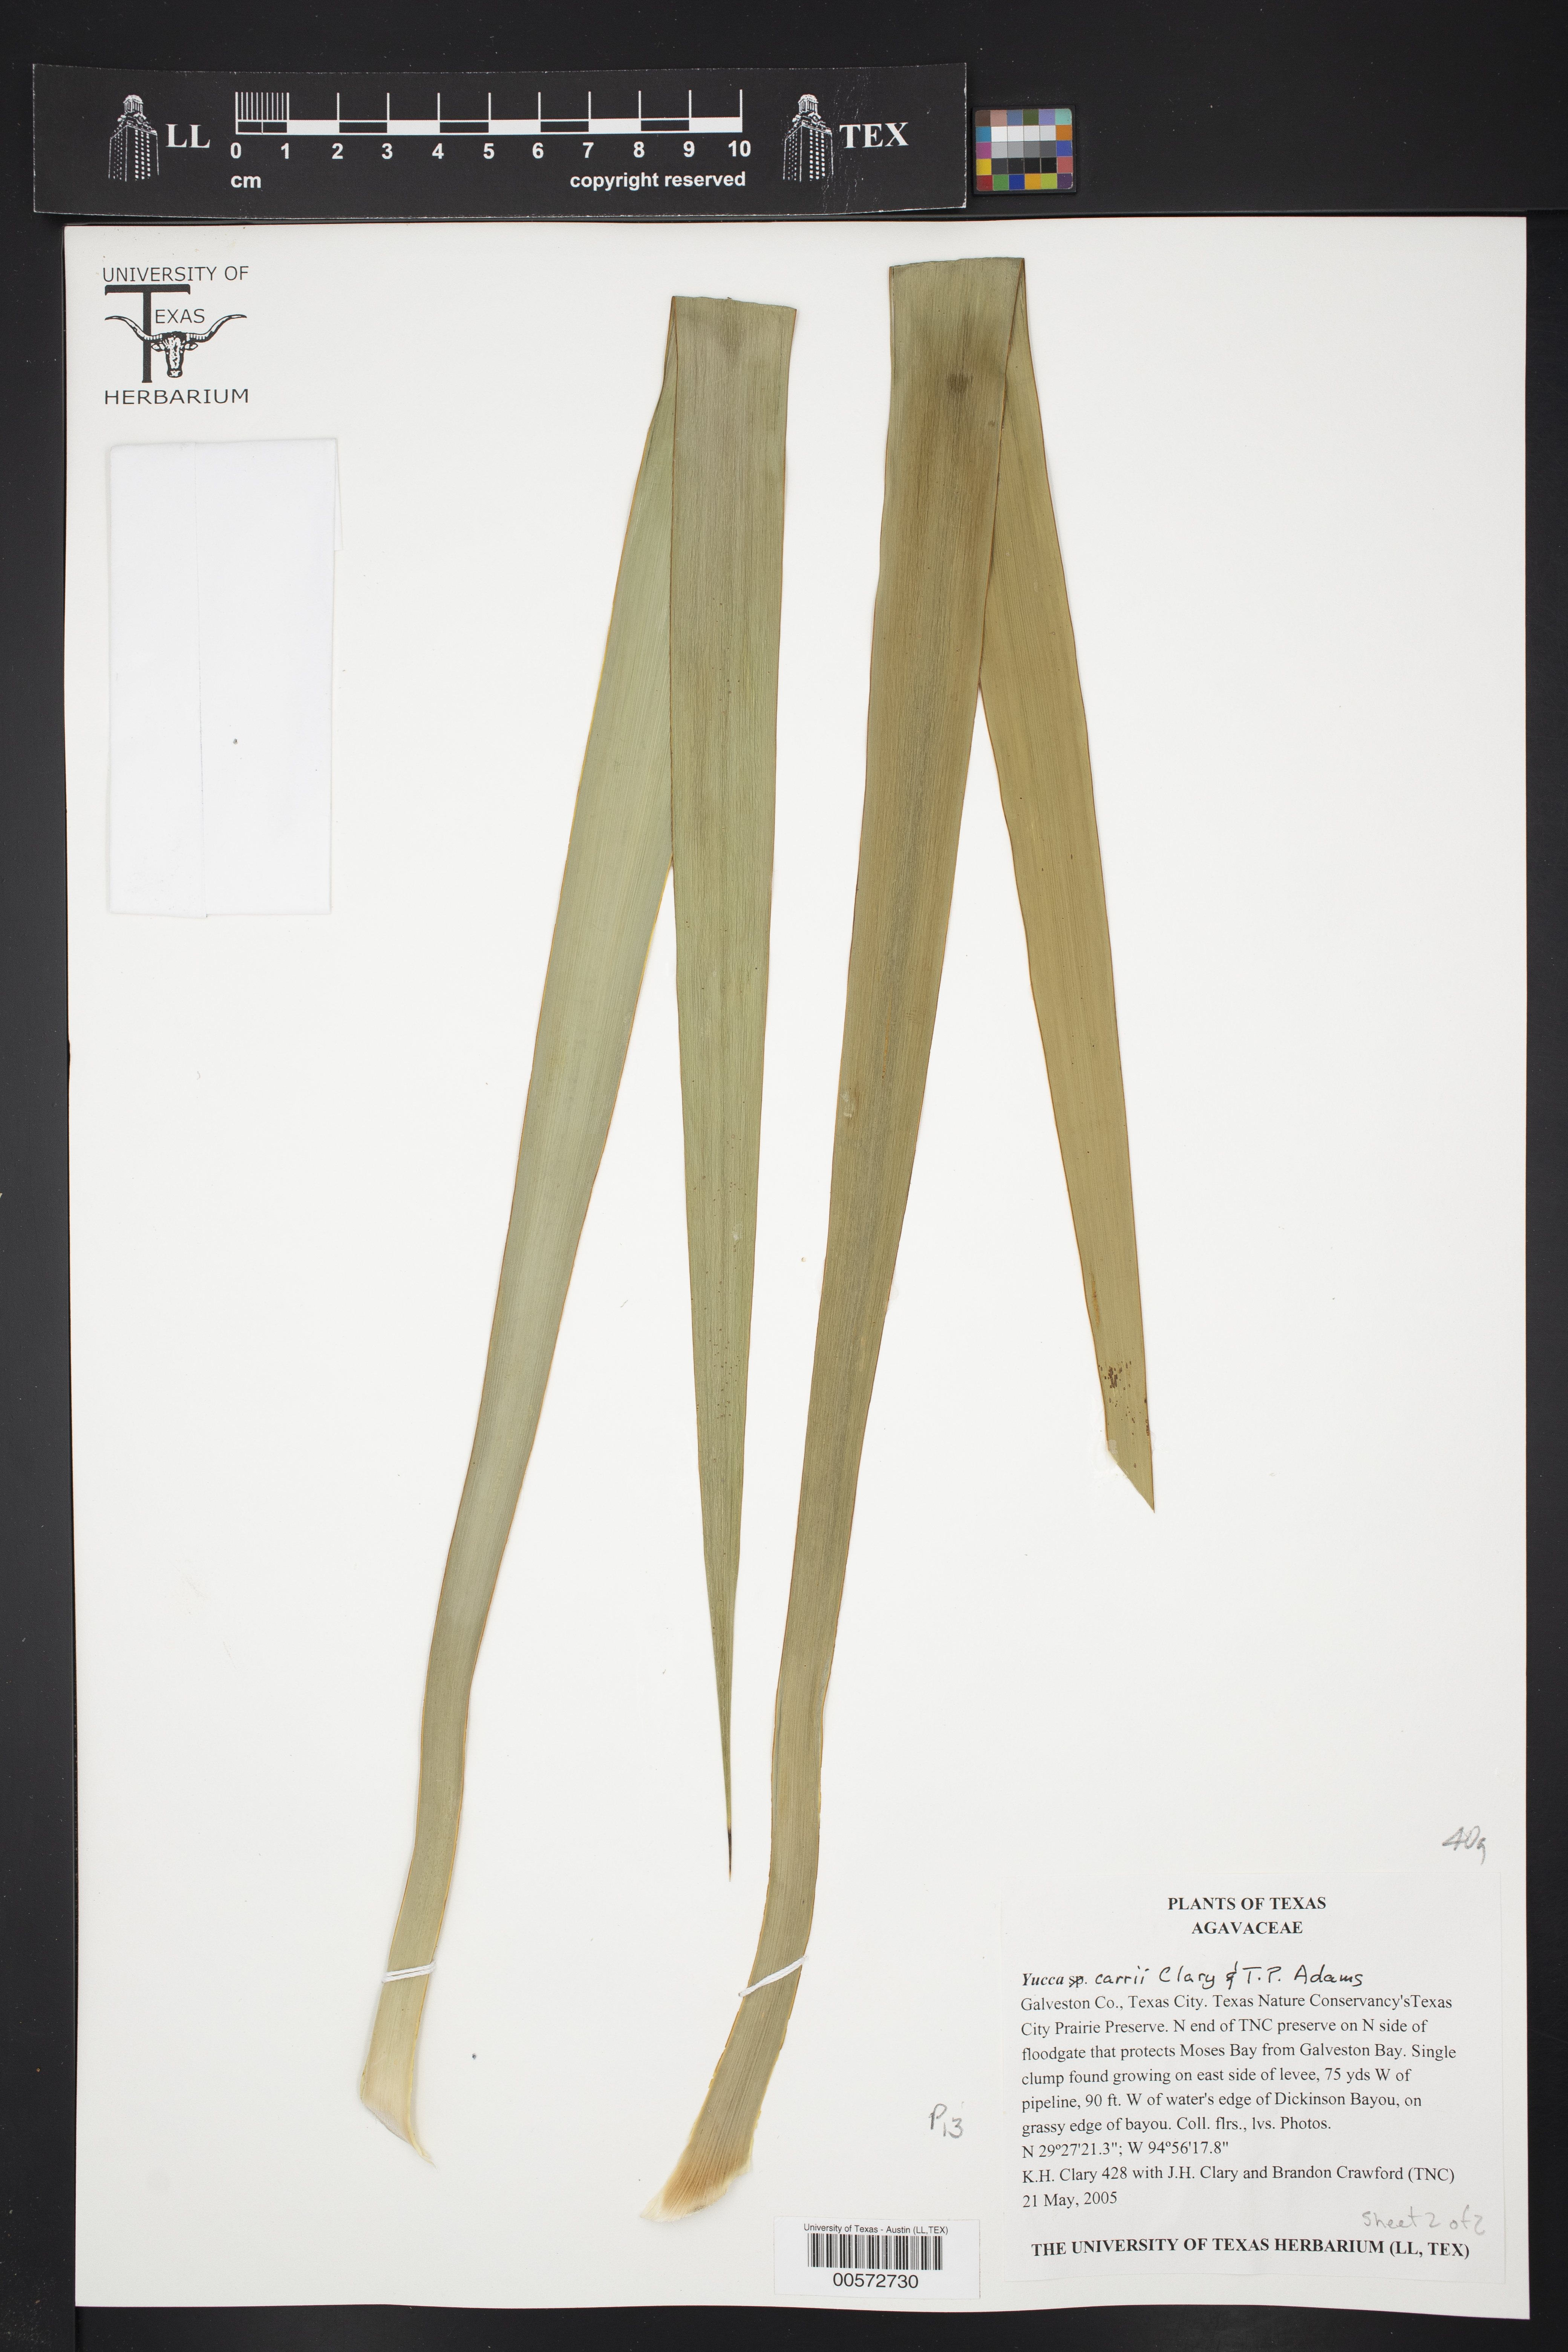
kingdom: Plantae
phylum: Tracheophyta
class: Liliopsida
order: Asparagales
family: Asparagaceae
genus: Yucca
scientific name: Yucca
